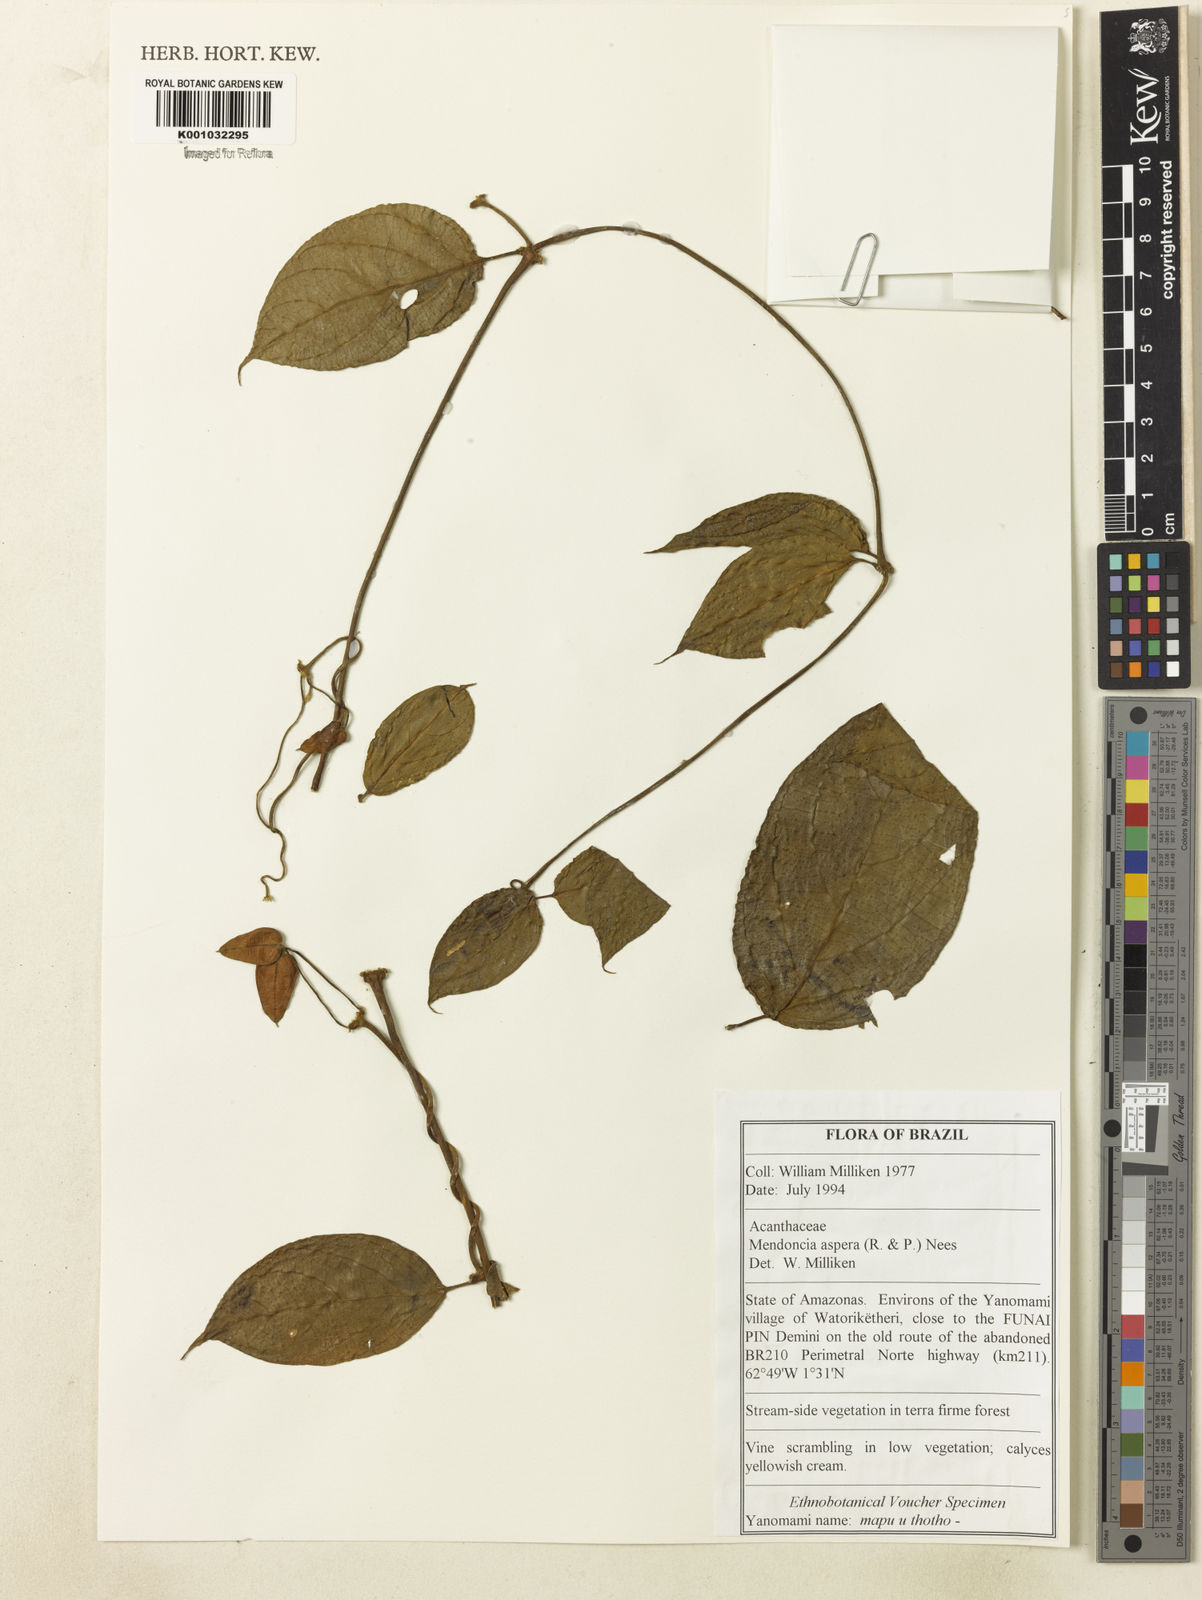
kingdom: Plantae
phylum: Tracheophyta
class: Magnoliopsida
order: Lamiales
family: Acanthaceae
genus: Mendoncia
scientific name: Mendoncia
